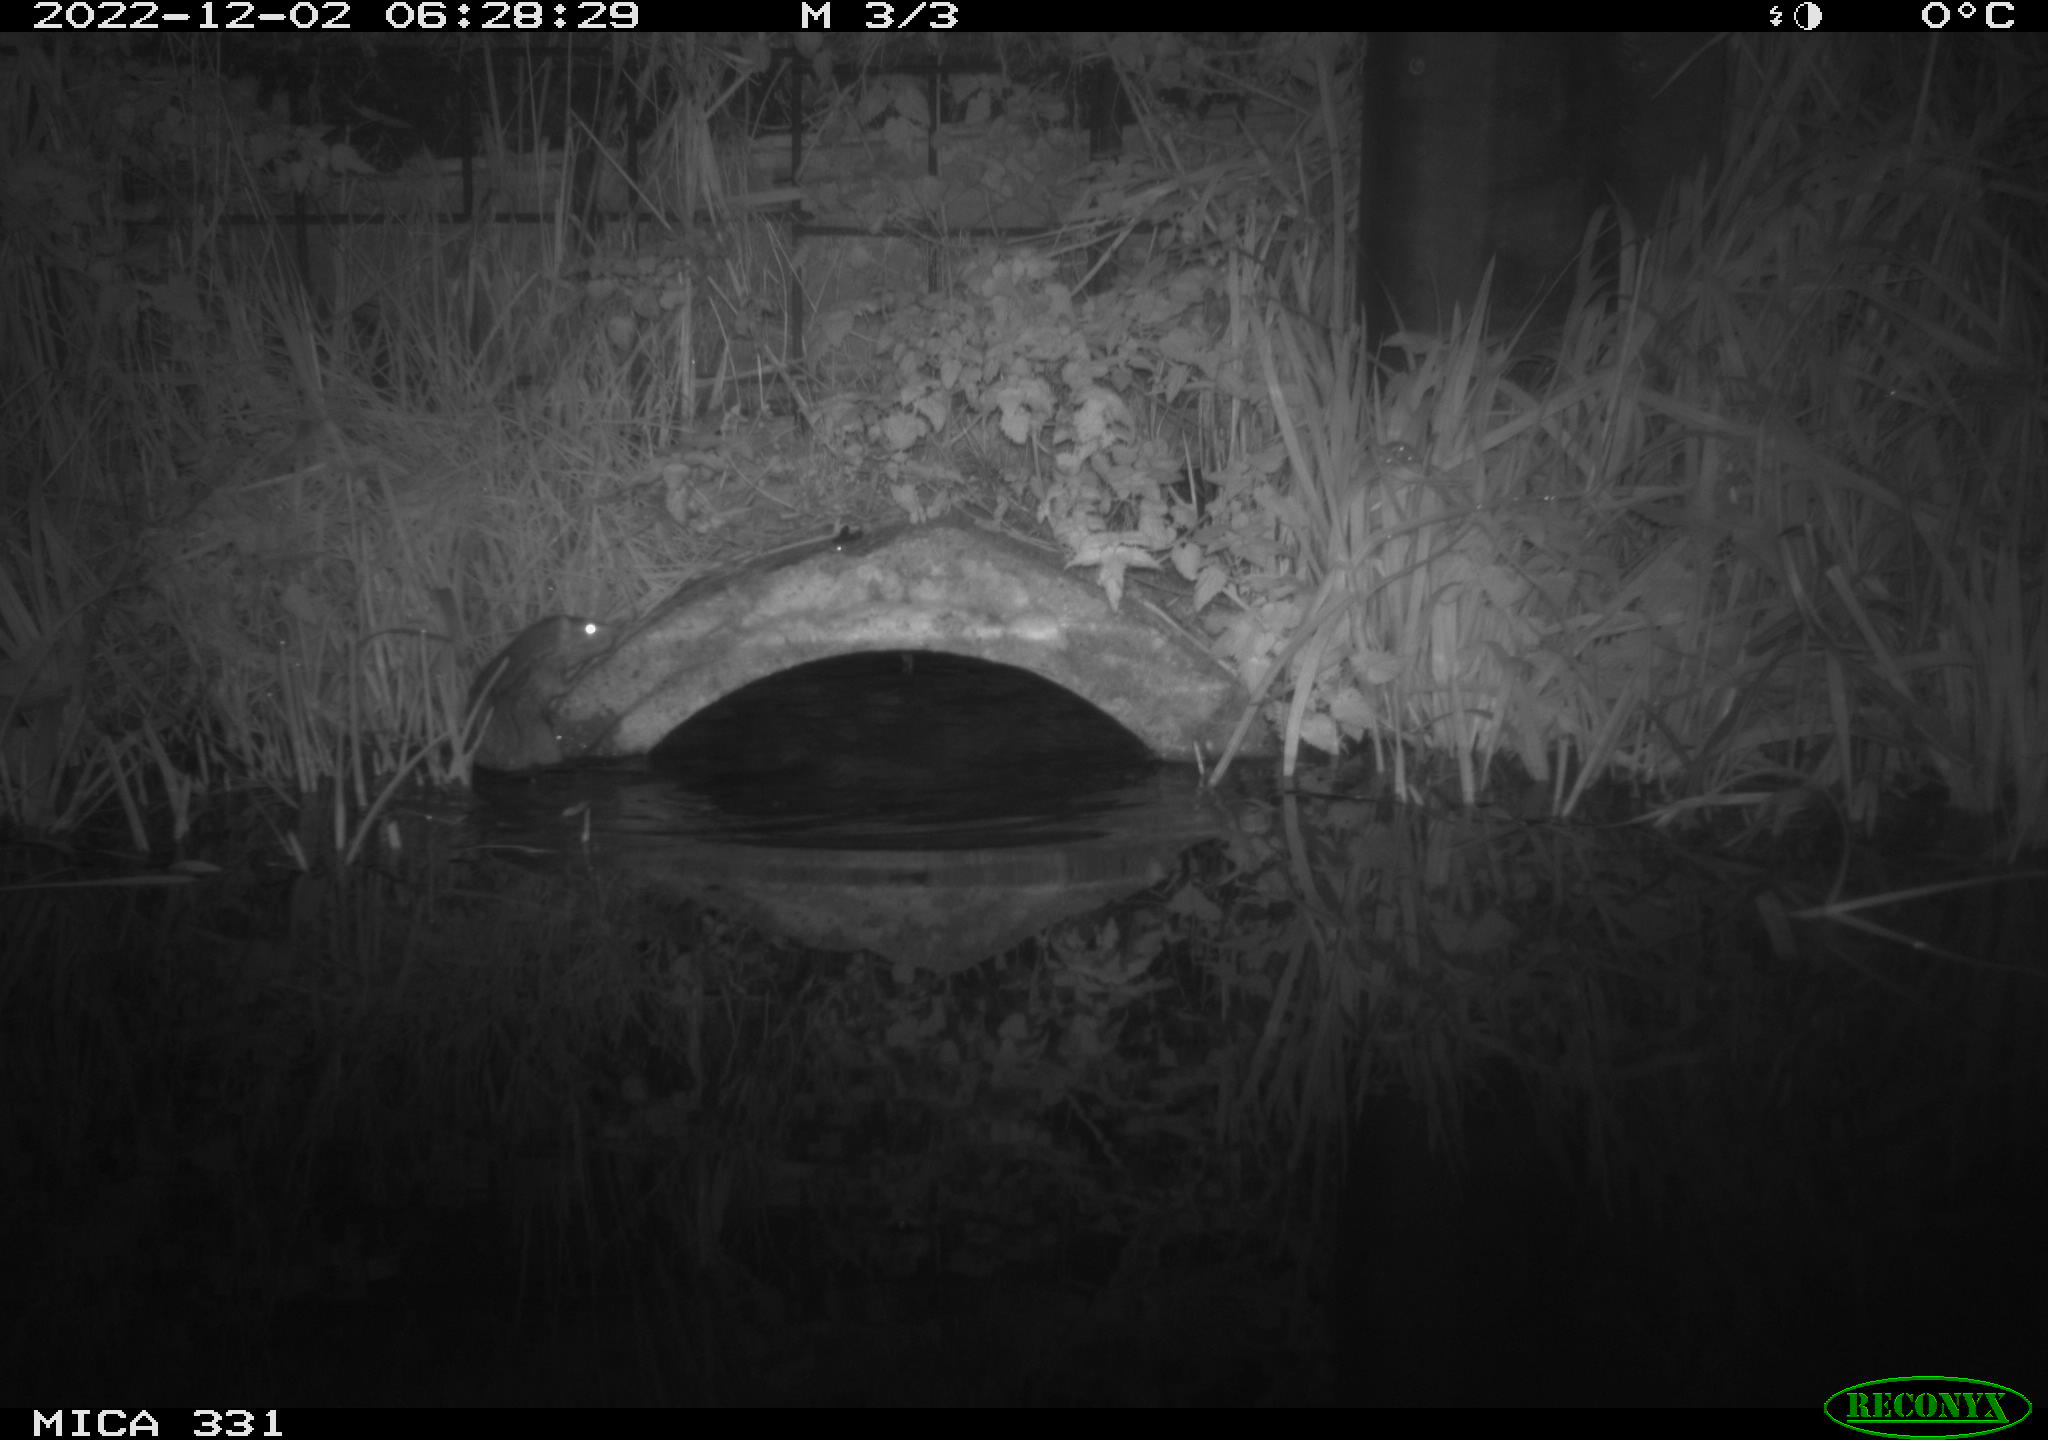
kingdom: Animalia
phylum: Chordata
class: Mammalia
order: Rodentia
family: Muridae
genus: Rattus
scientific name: Rattus norvegicus
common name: Brown rat
